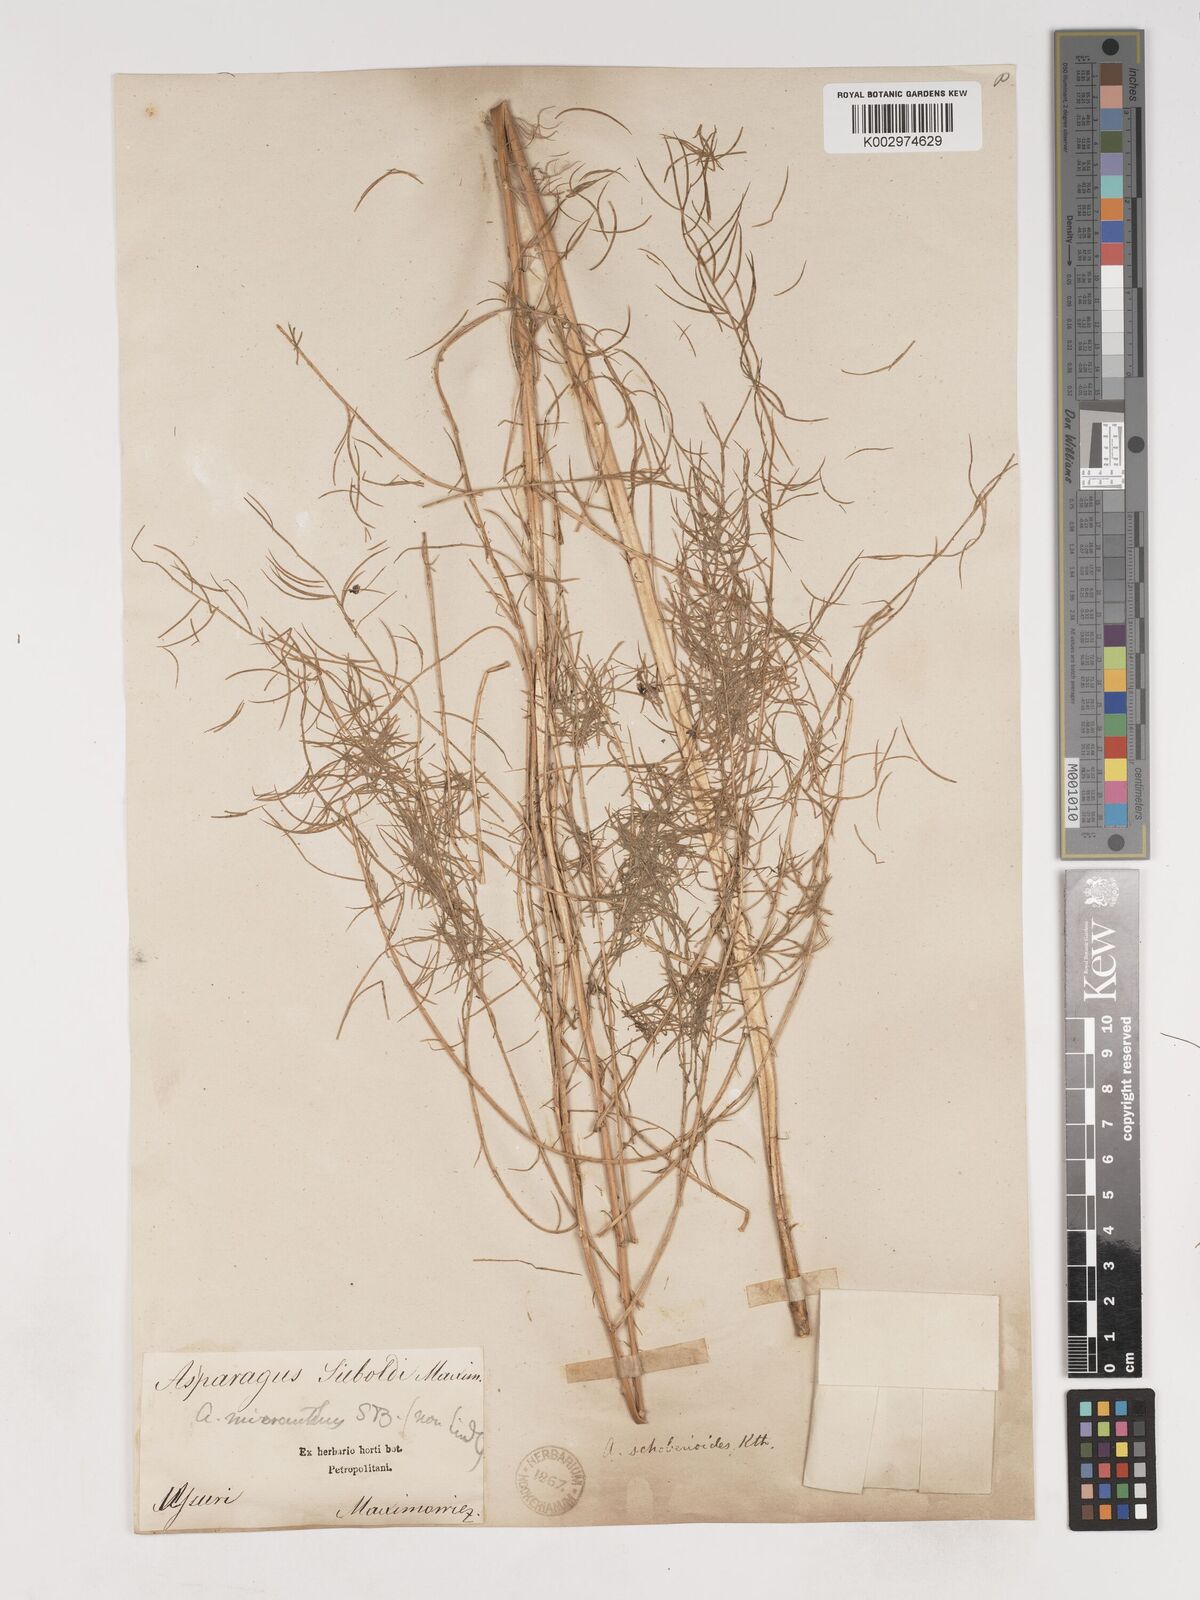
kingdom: Plantae
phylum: Tracheophyta
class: Liliopsida
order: Asparagales
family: Asparagaceae
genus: Asparagus
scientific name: Asparagus schoberioides
